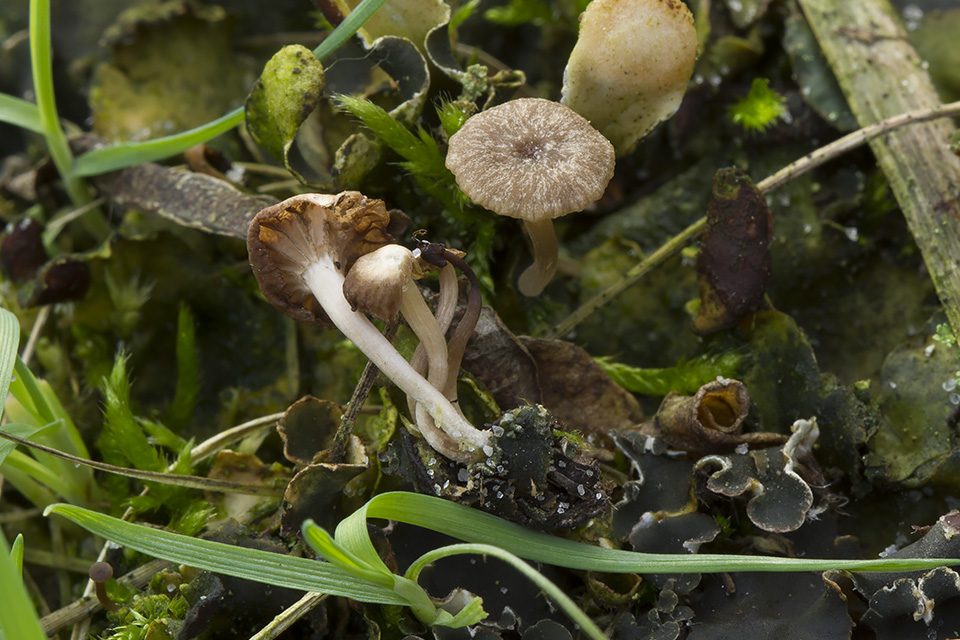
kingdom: Fungi
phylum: Basidiomycota
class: Agaricomycetes
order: Agaricales
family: Hygrophoraceae
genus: Arrhenia
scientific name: Arrhenia peltigerina
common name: skjoldlav-fontænehat
